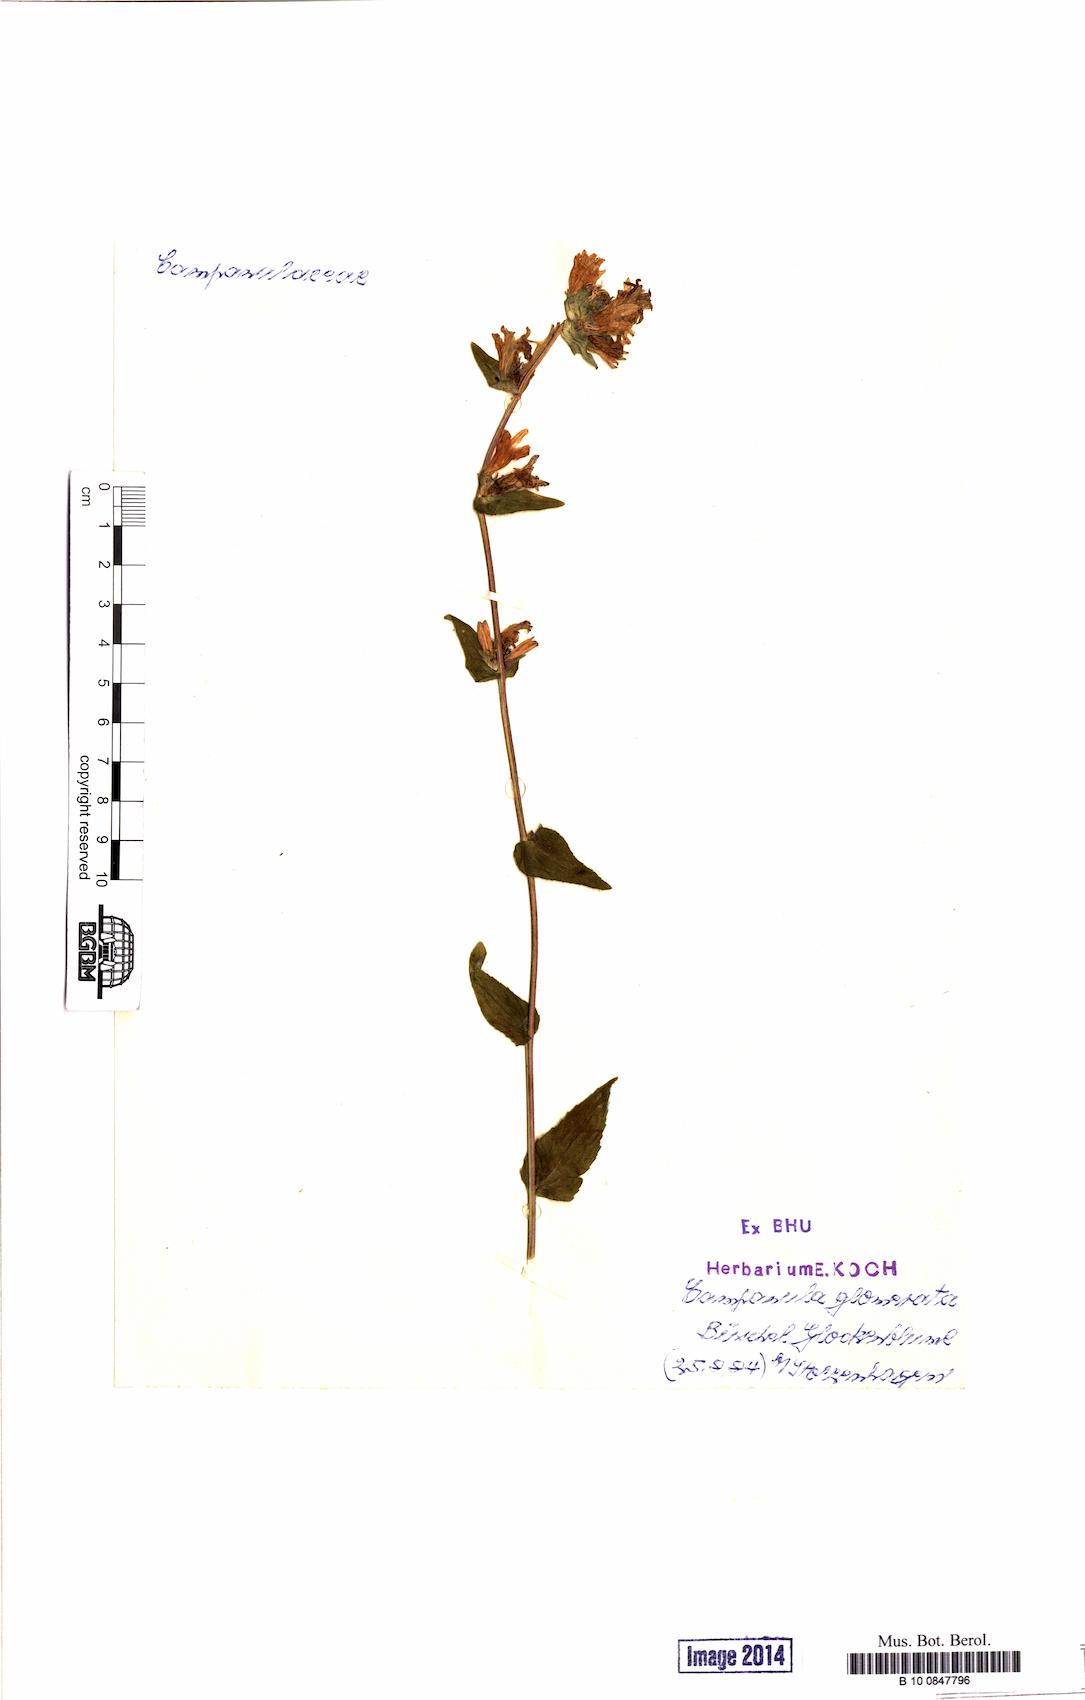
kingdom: Plantae
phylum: Tracheophyta
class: Magnoliopsida
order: Asterales
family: Campanulaceae
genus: Campanula
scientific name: Campanula glomerata
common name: Clustered bellflower
